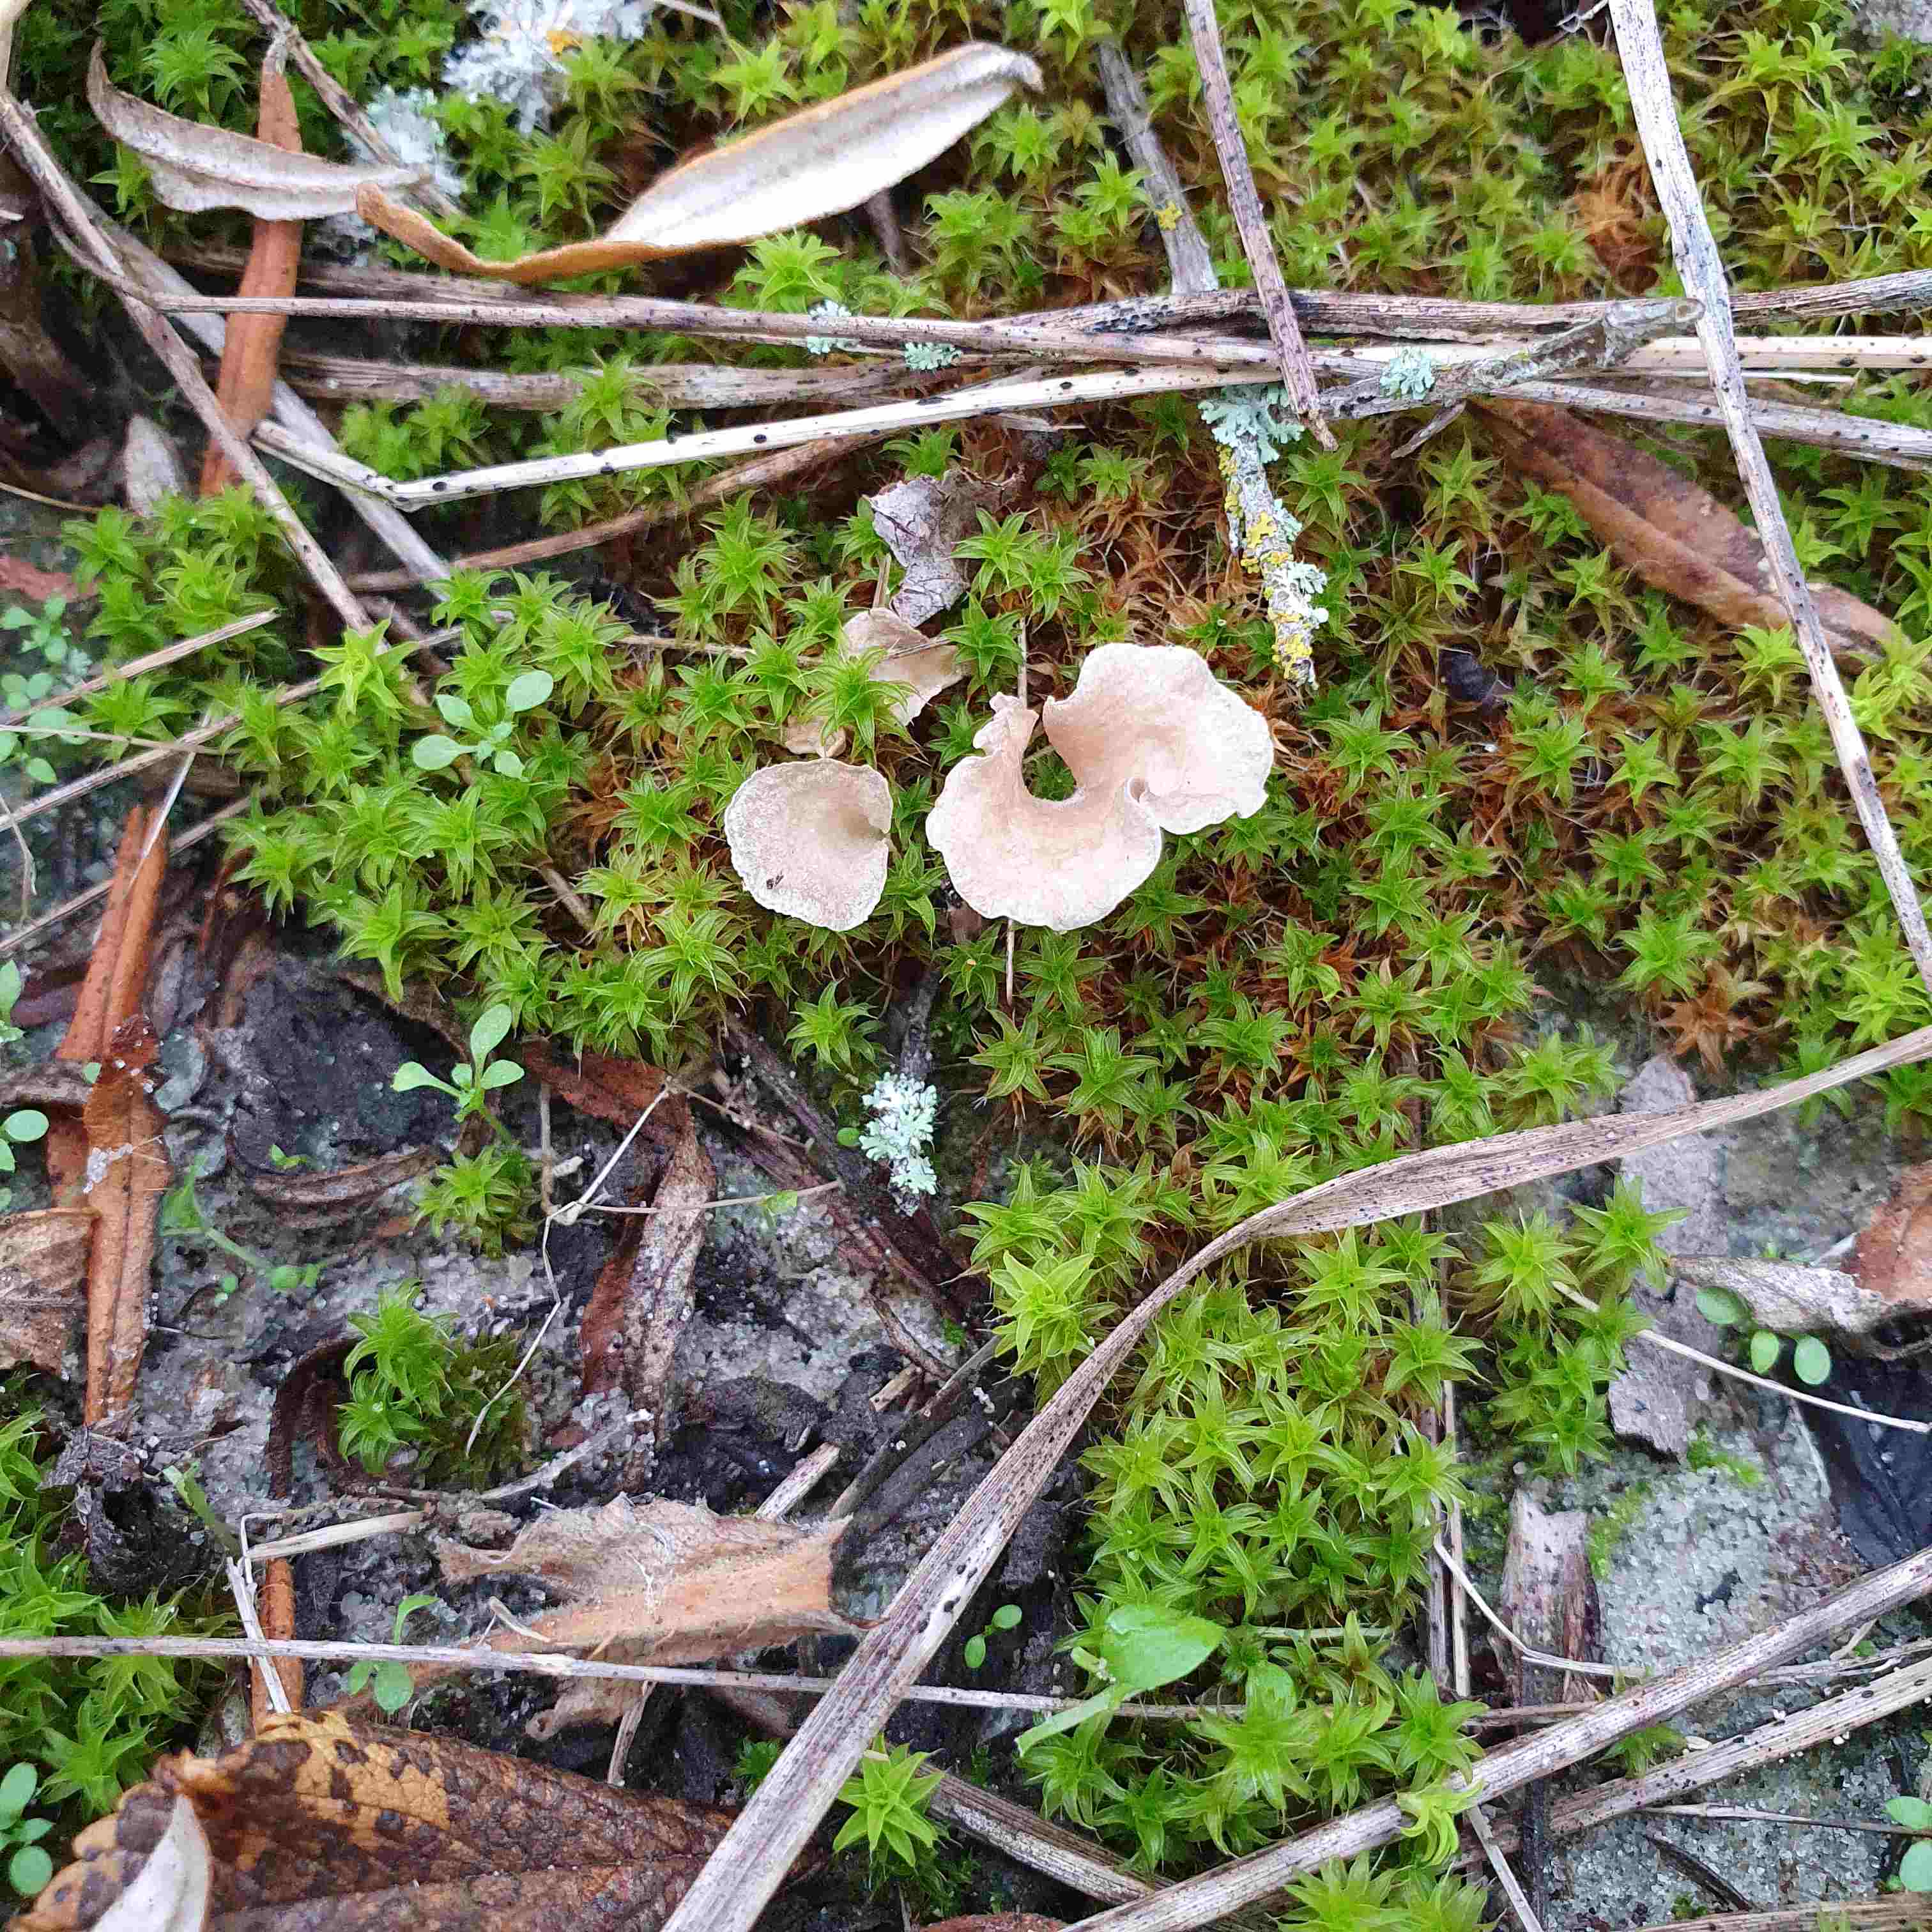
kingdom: Fungi
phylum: Basidiomycota
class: Agaricomycetes
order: Agaricales
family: Hygrophoraceae
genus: Arrhenia
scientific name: Arrhenia spathulata
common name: skæv fontænehat
